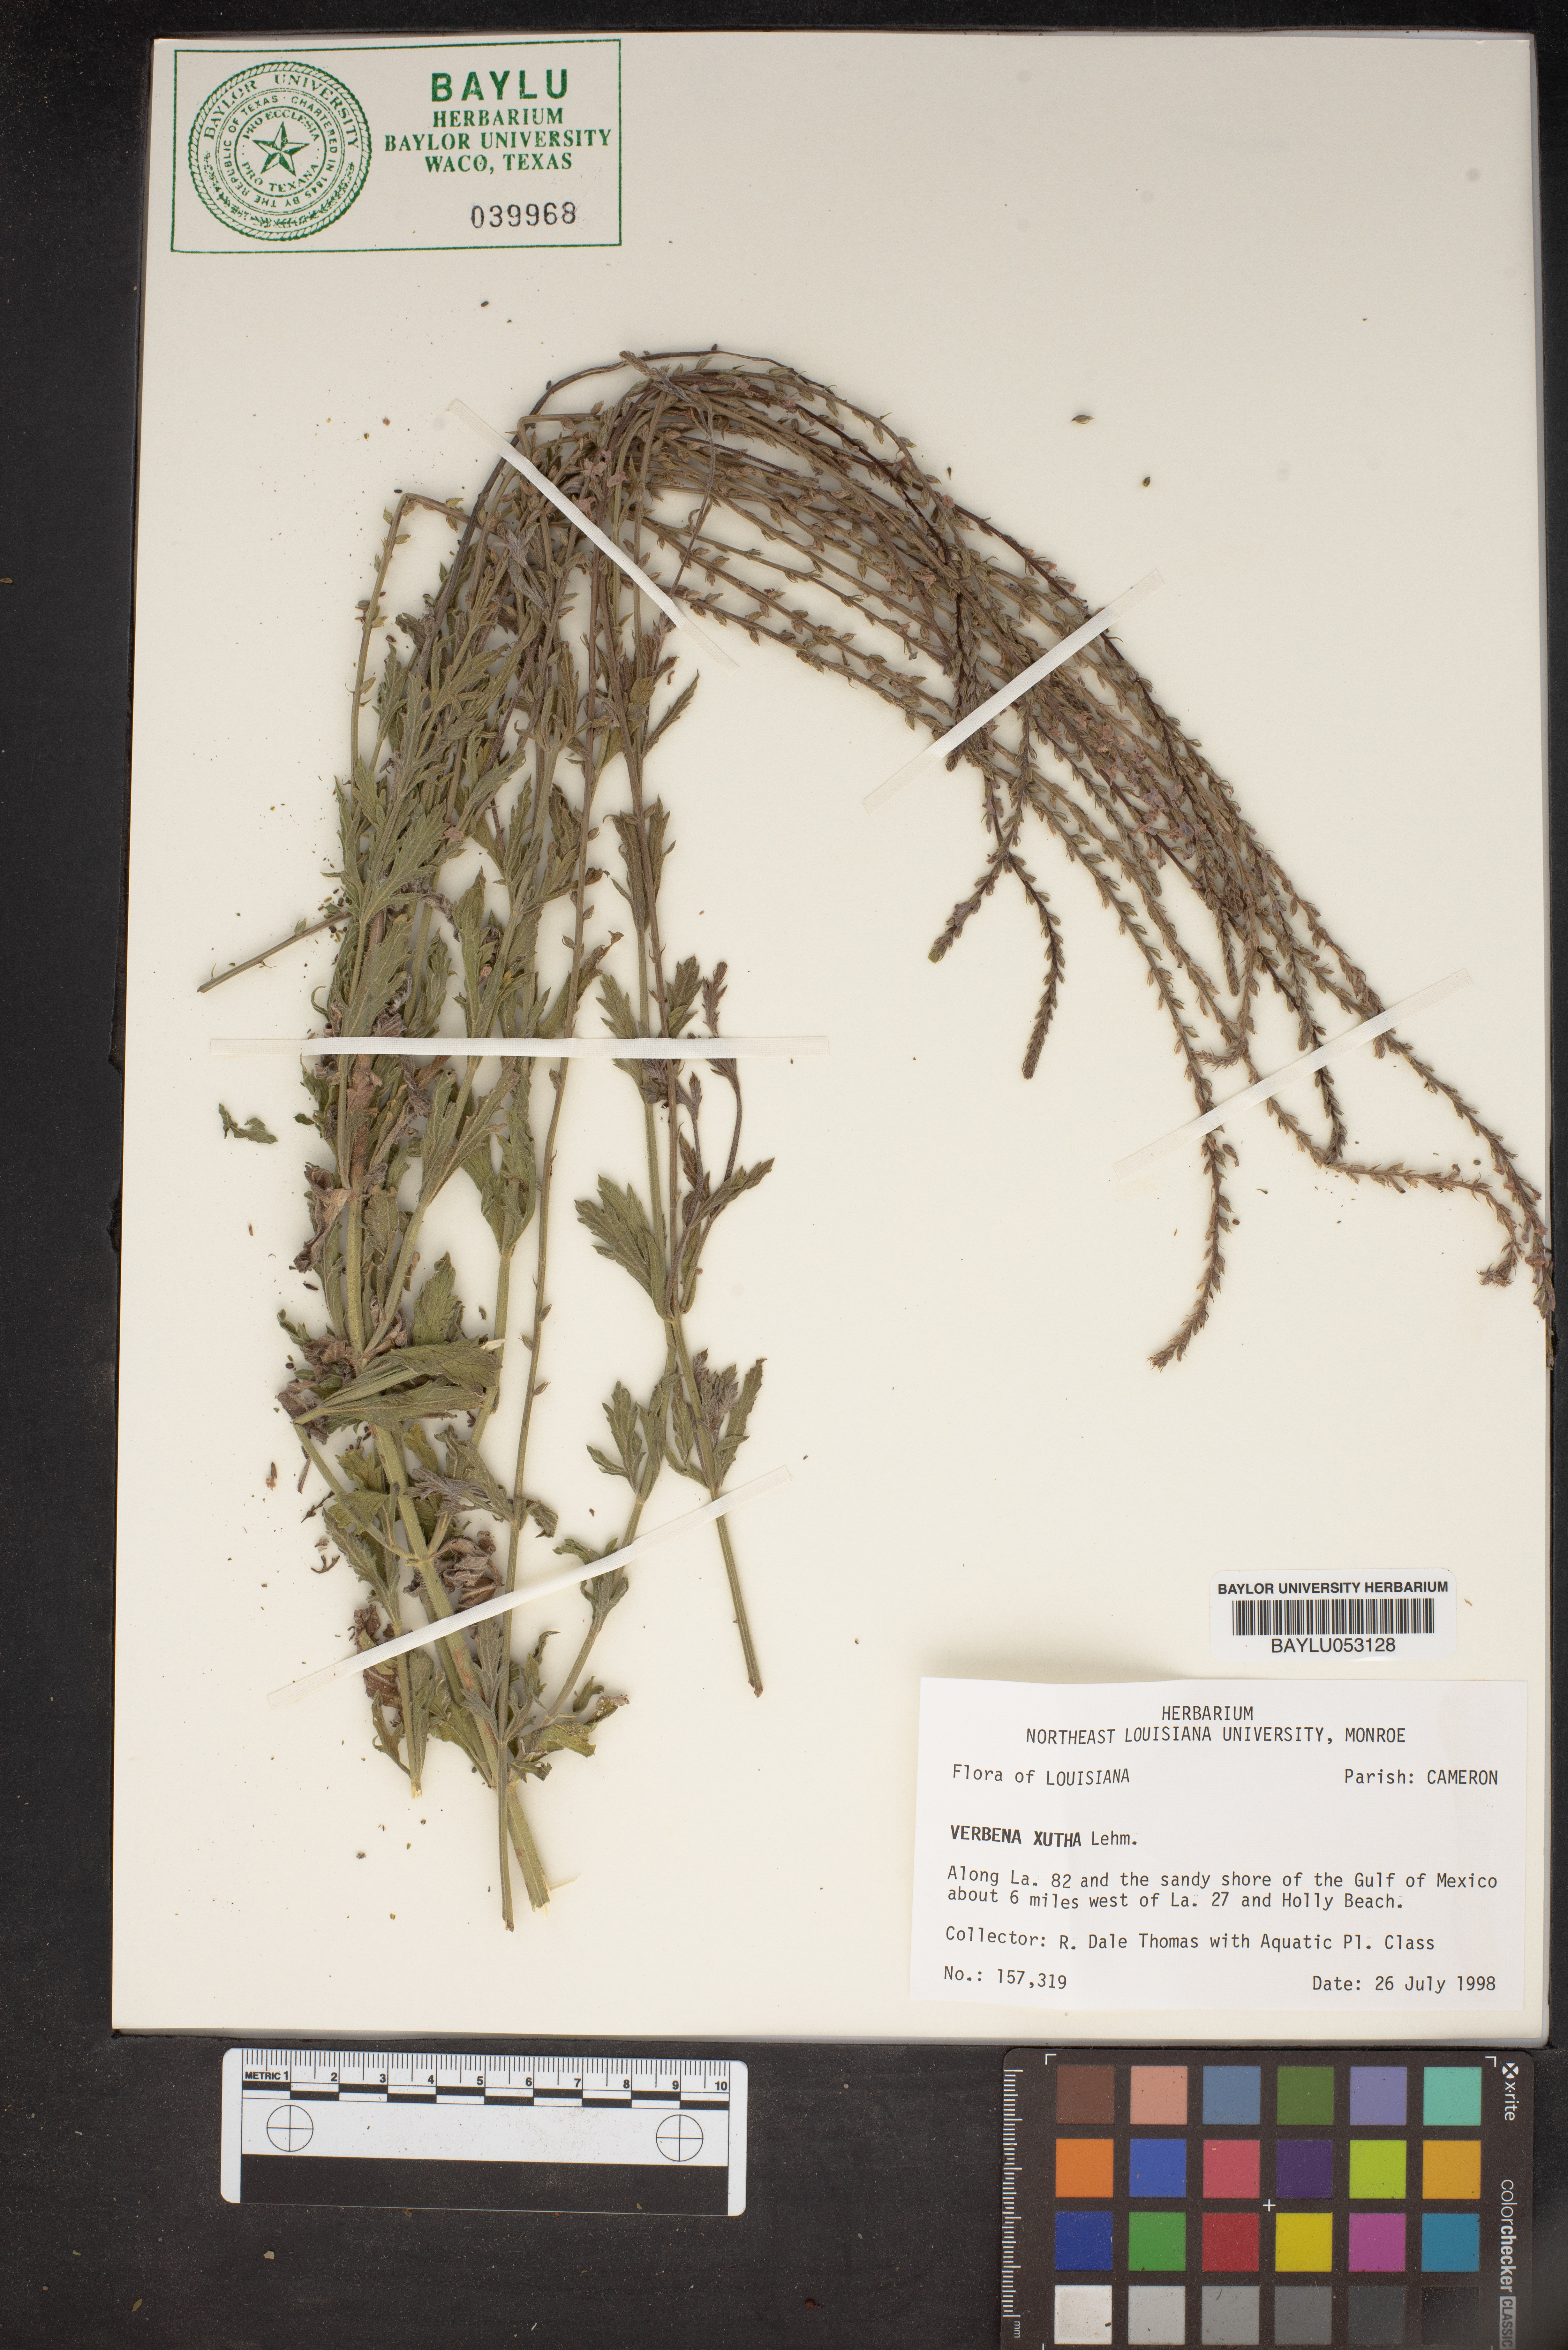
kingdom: Plantae
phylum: Tracheophyta
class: Magnoliopsida
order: Lamiales
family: Verbenaceae
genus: Verbena
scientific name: Verbena xutha
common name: Gulf vervain
